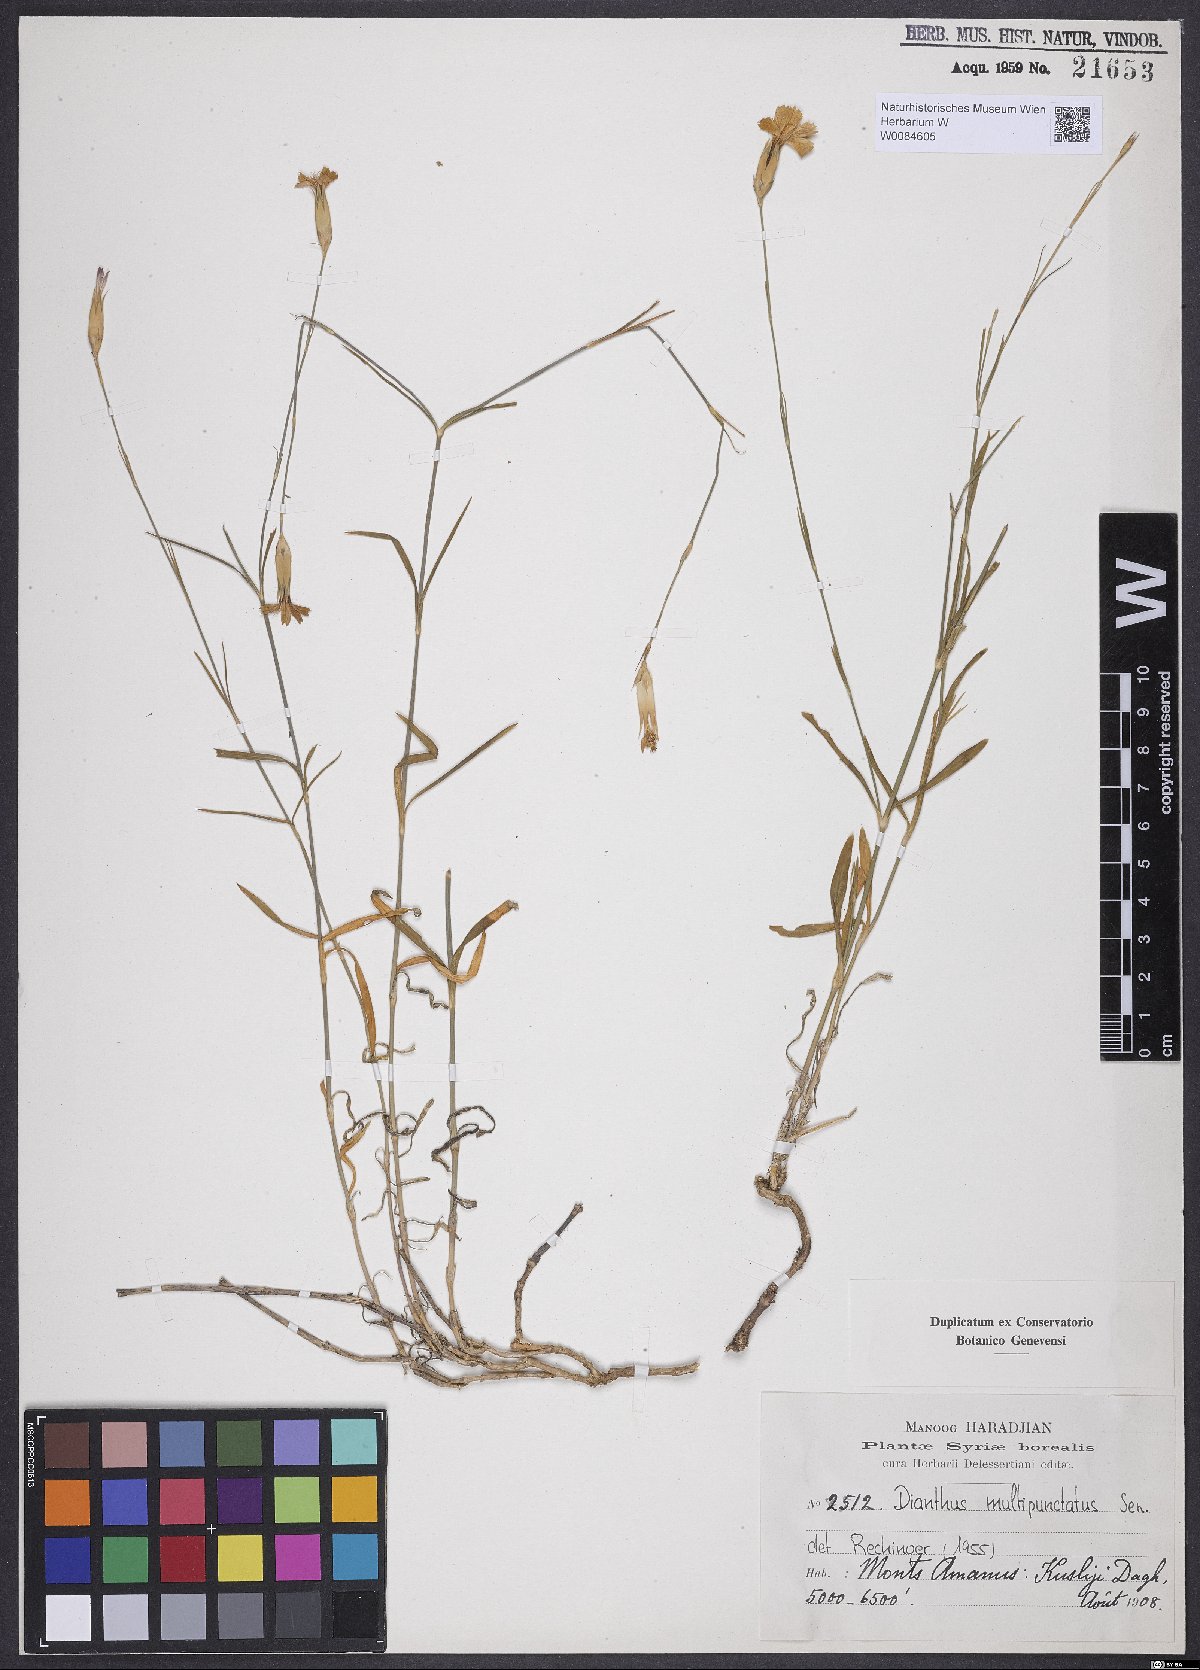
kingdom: Plantae
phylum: Tracheophyta
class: Magnoliopsida
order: Caryophyllales
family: Caryophyllaceae
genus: Dianthus
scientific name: Dianthus strictus
